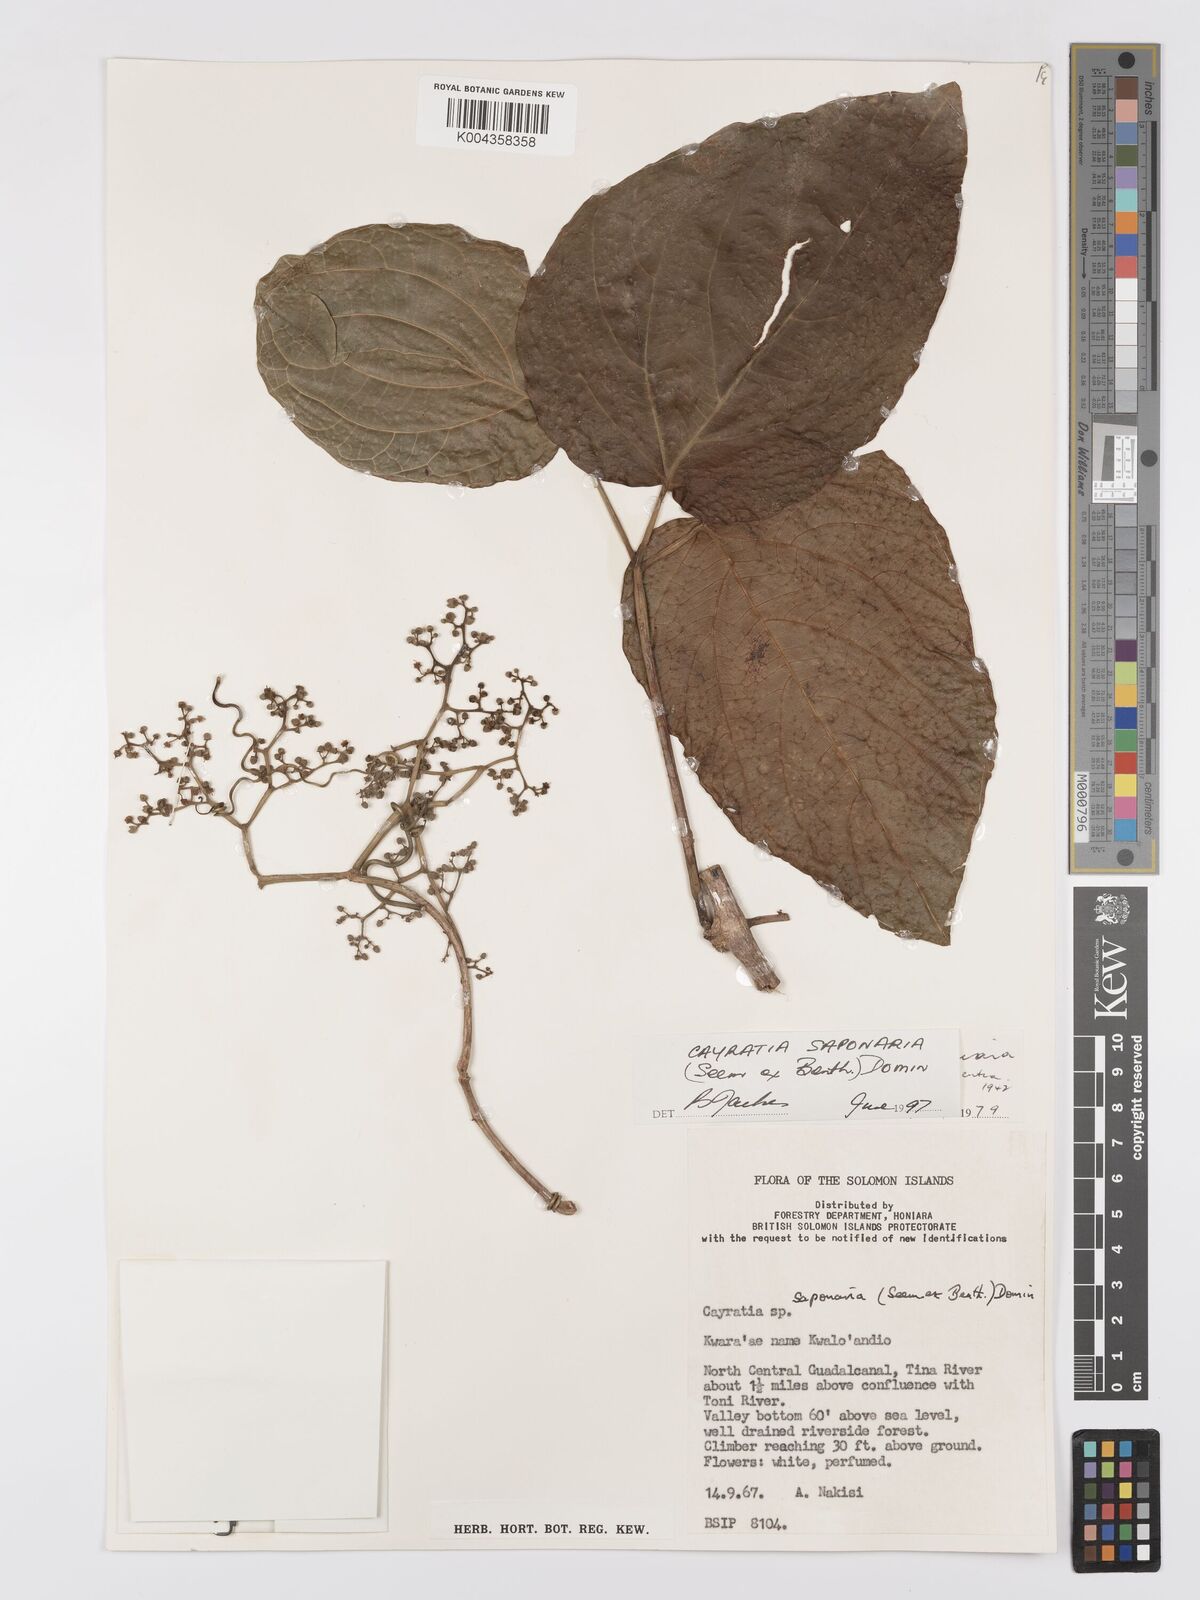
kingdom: Plantae
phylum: Tracheophyta
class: Magnoliopsida
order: Vitales
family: Vitaceae
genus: Cayratia
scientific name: Cayratia saponaria
